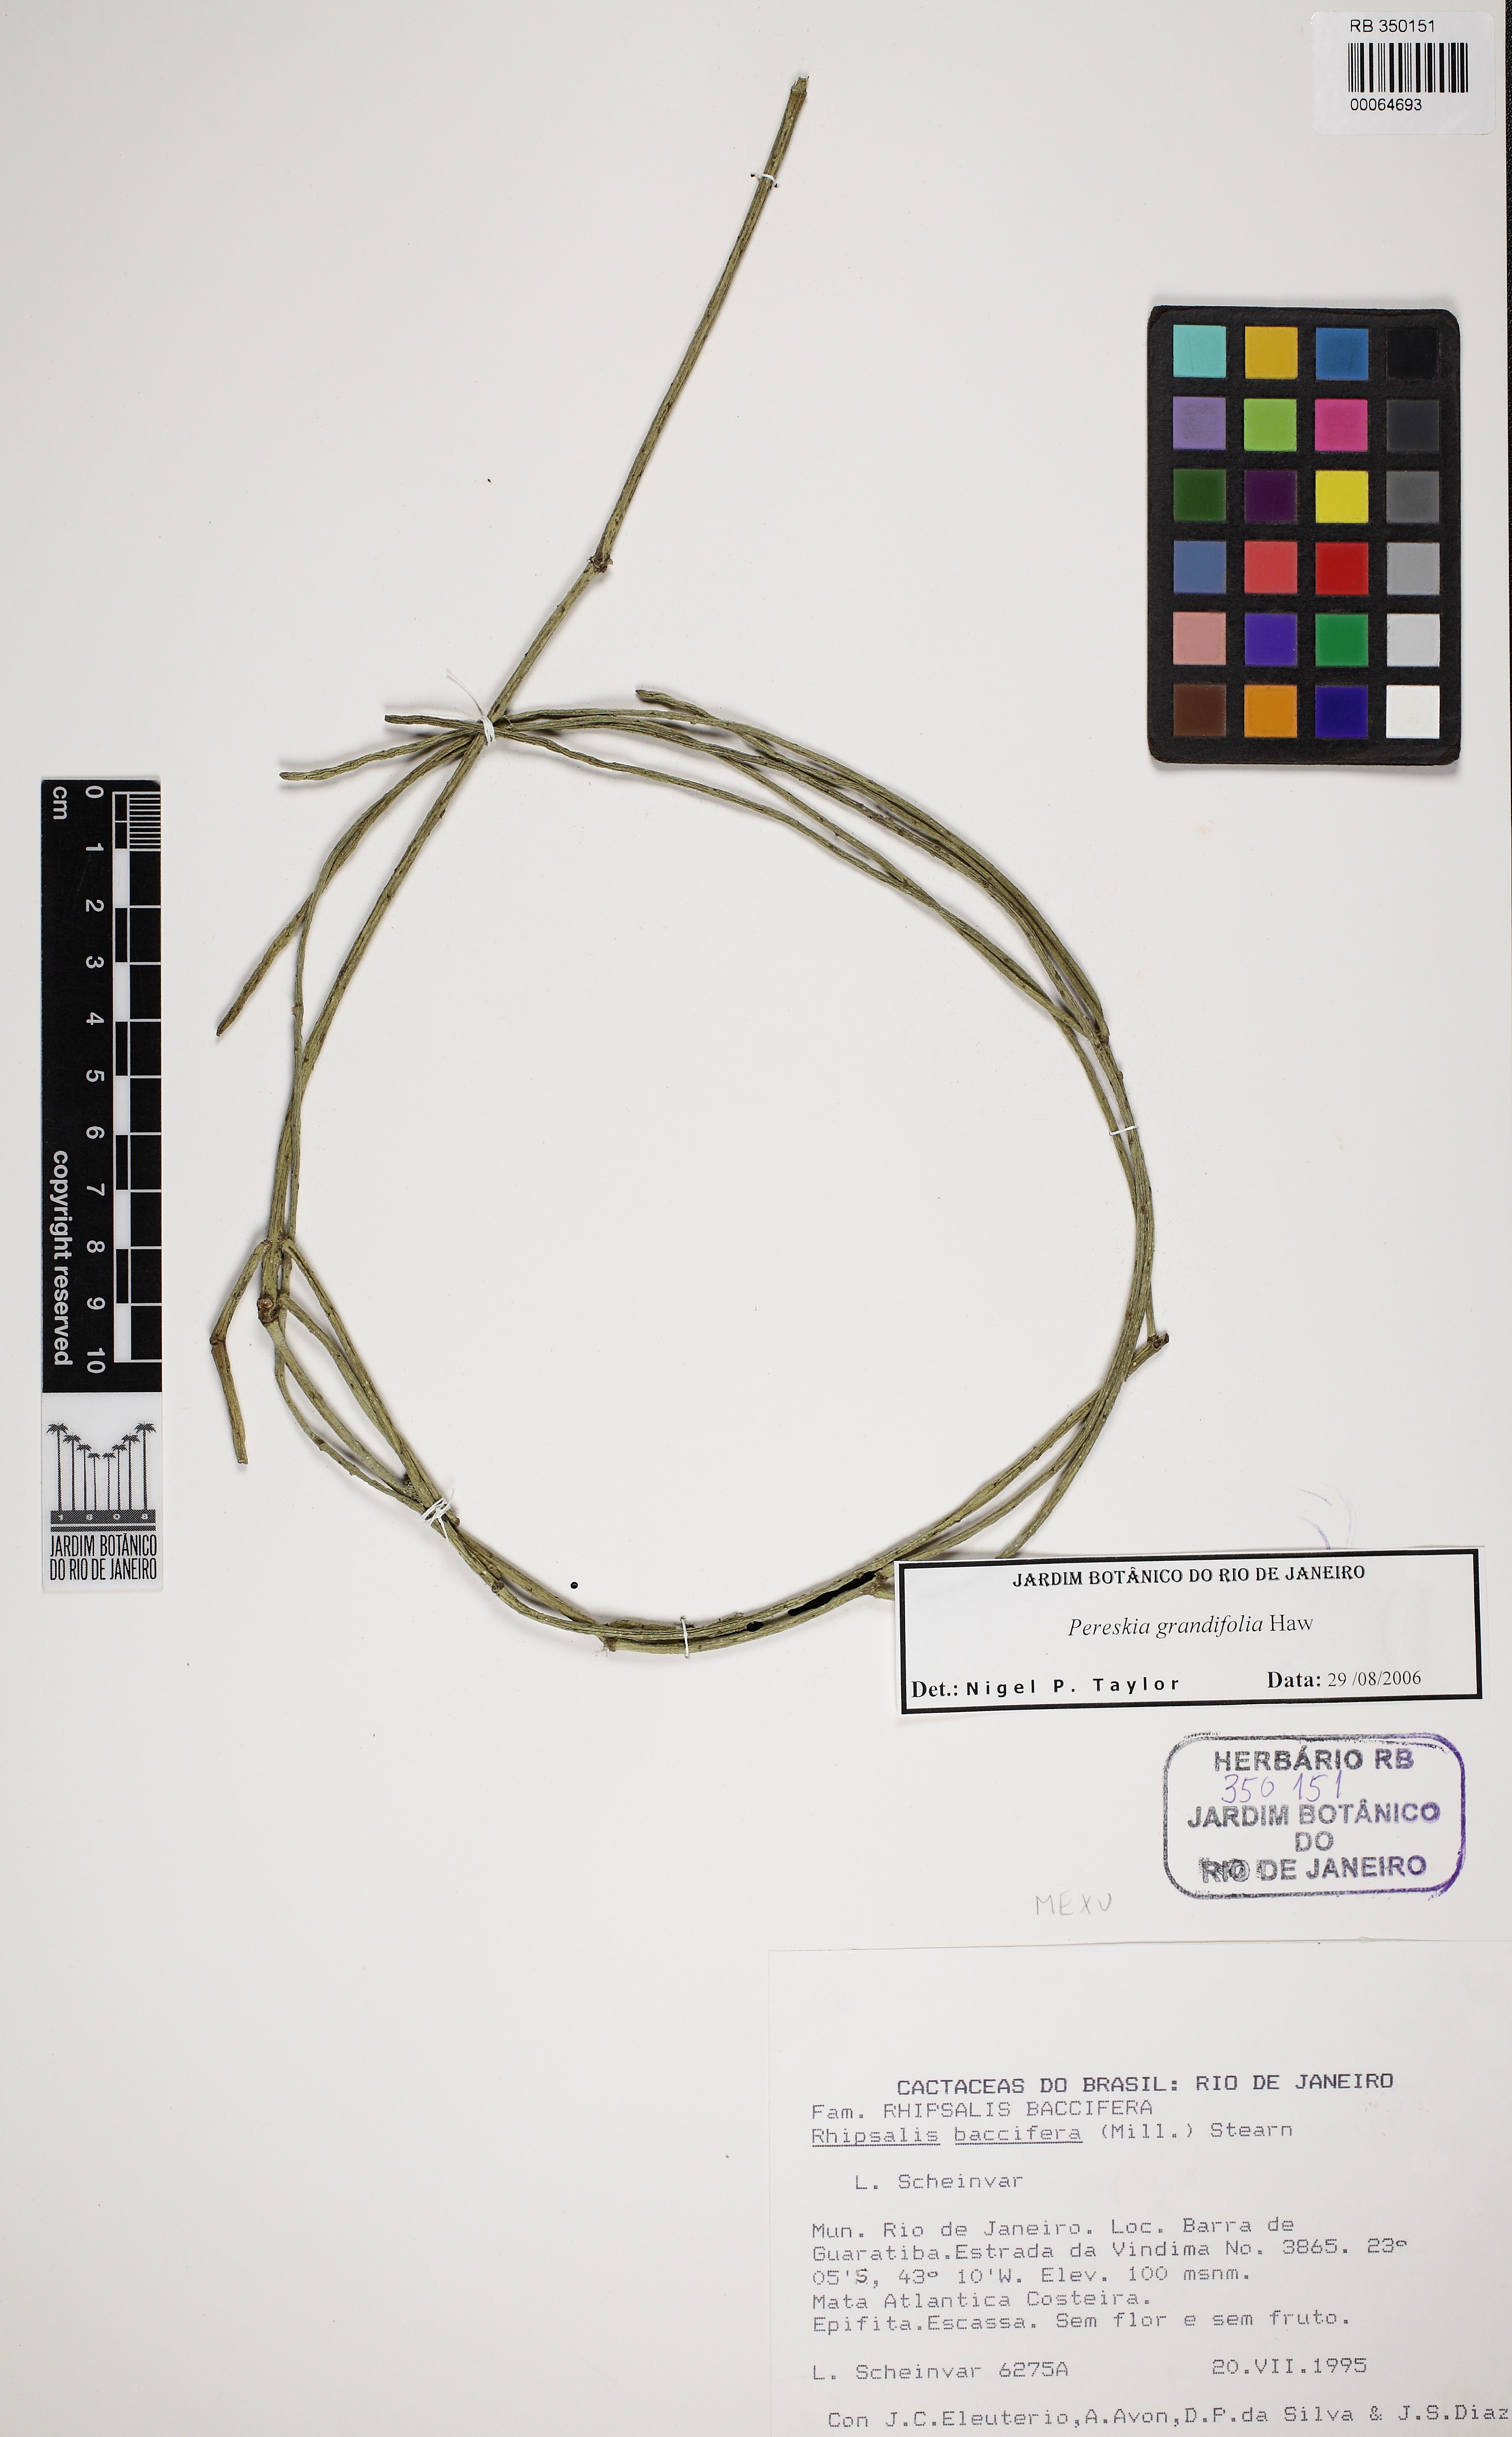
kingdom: Plantae
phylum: Tracheophyta
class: Magnoliopsida
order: Caryophyllales
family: Cactaceae
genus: Rhipsalis
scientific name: Rhipsalis lindbergiana
